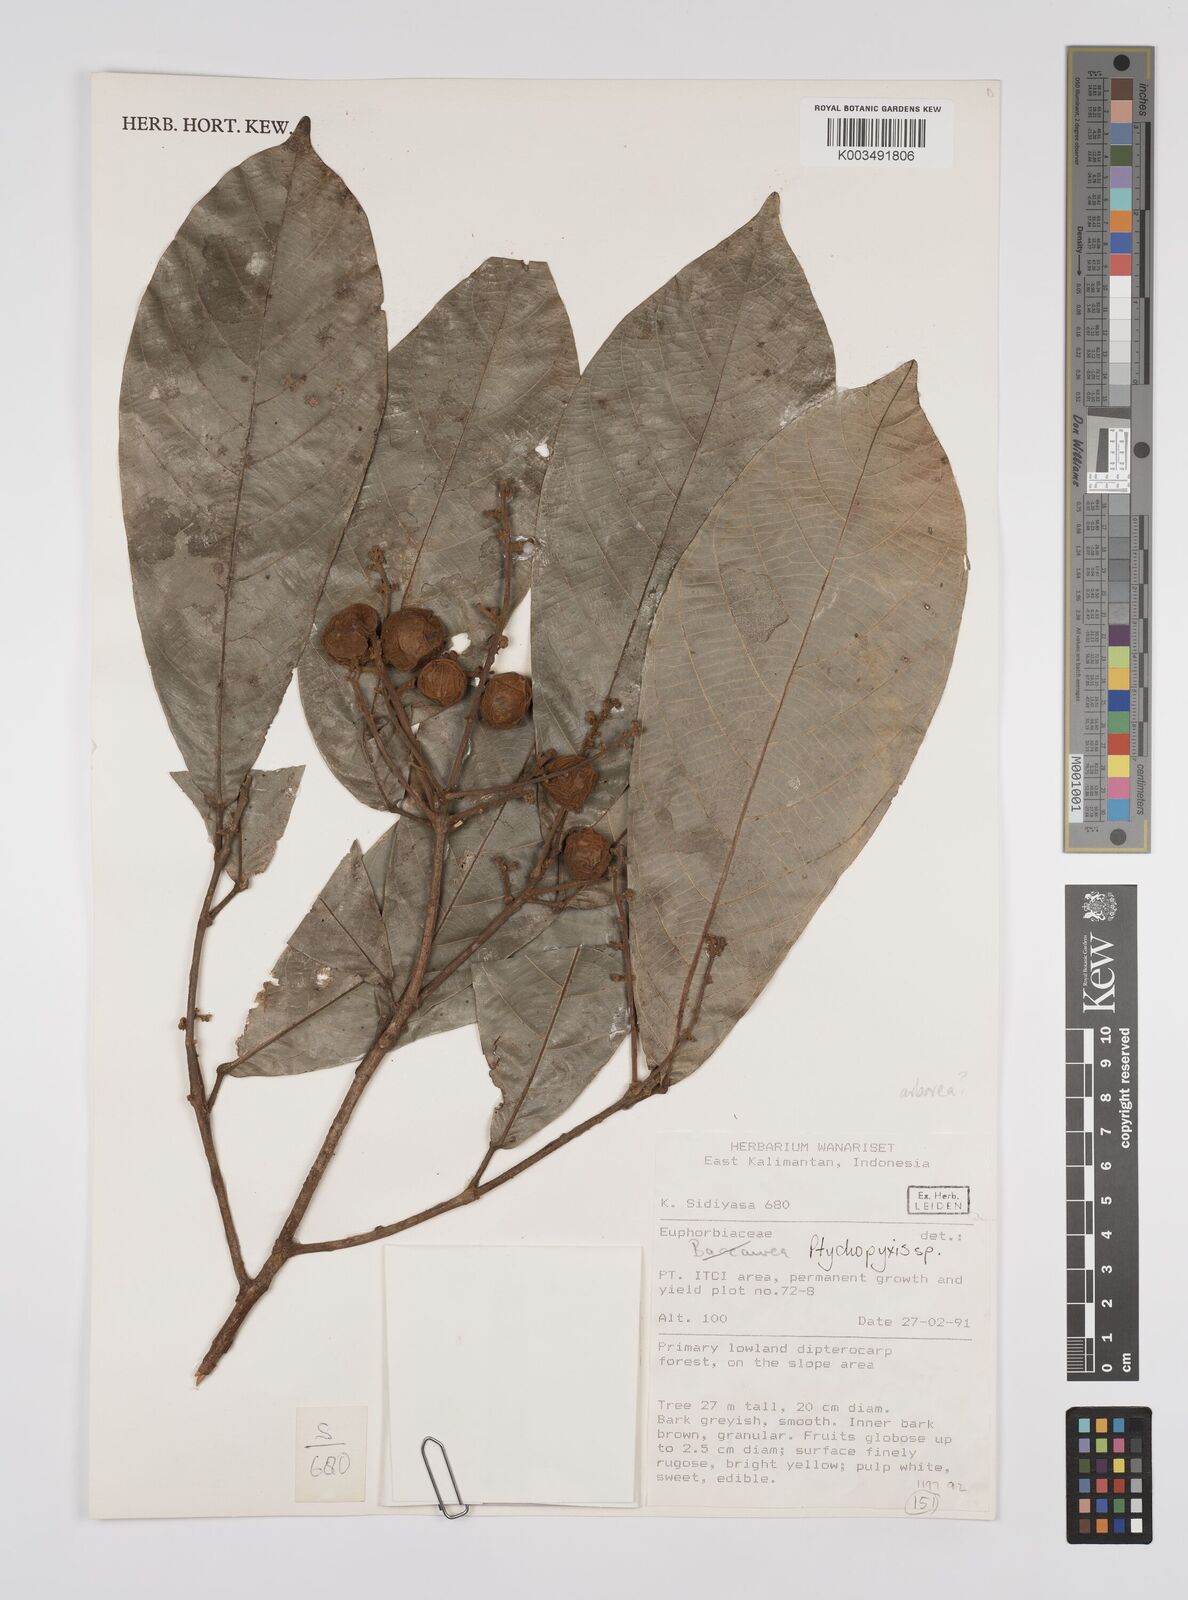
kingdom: Plantae
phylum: Tracheophyta
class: Magnoliopsida
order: Malpighiales
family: Euphorbiaceae
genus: Ptychopyxis
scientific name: Ptychopyxis
